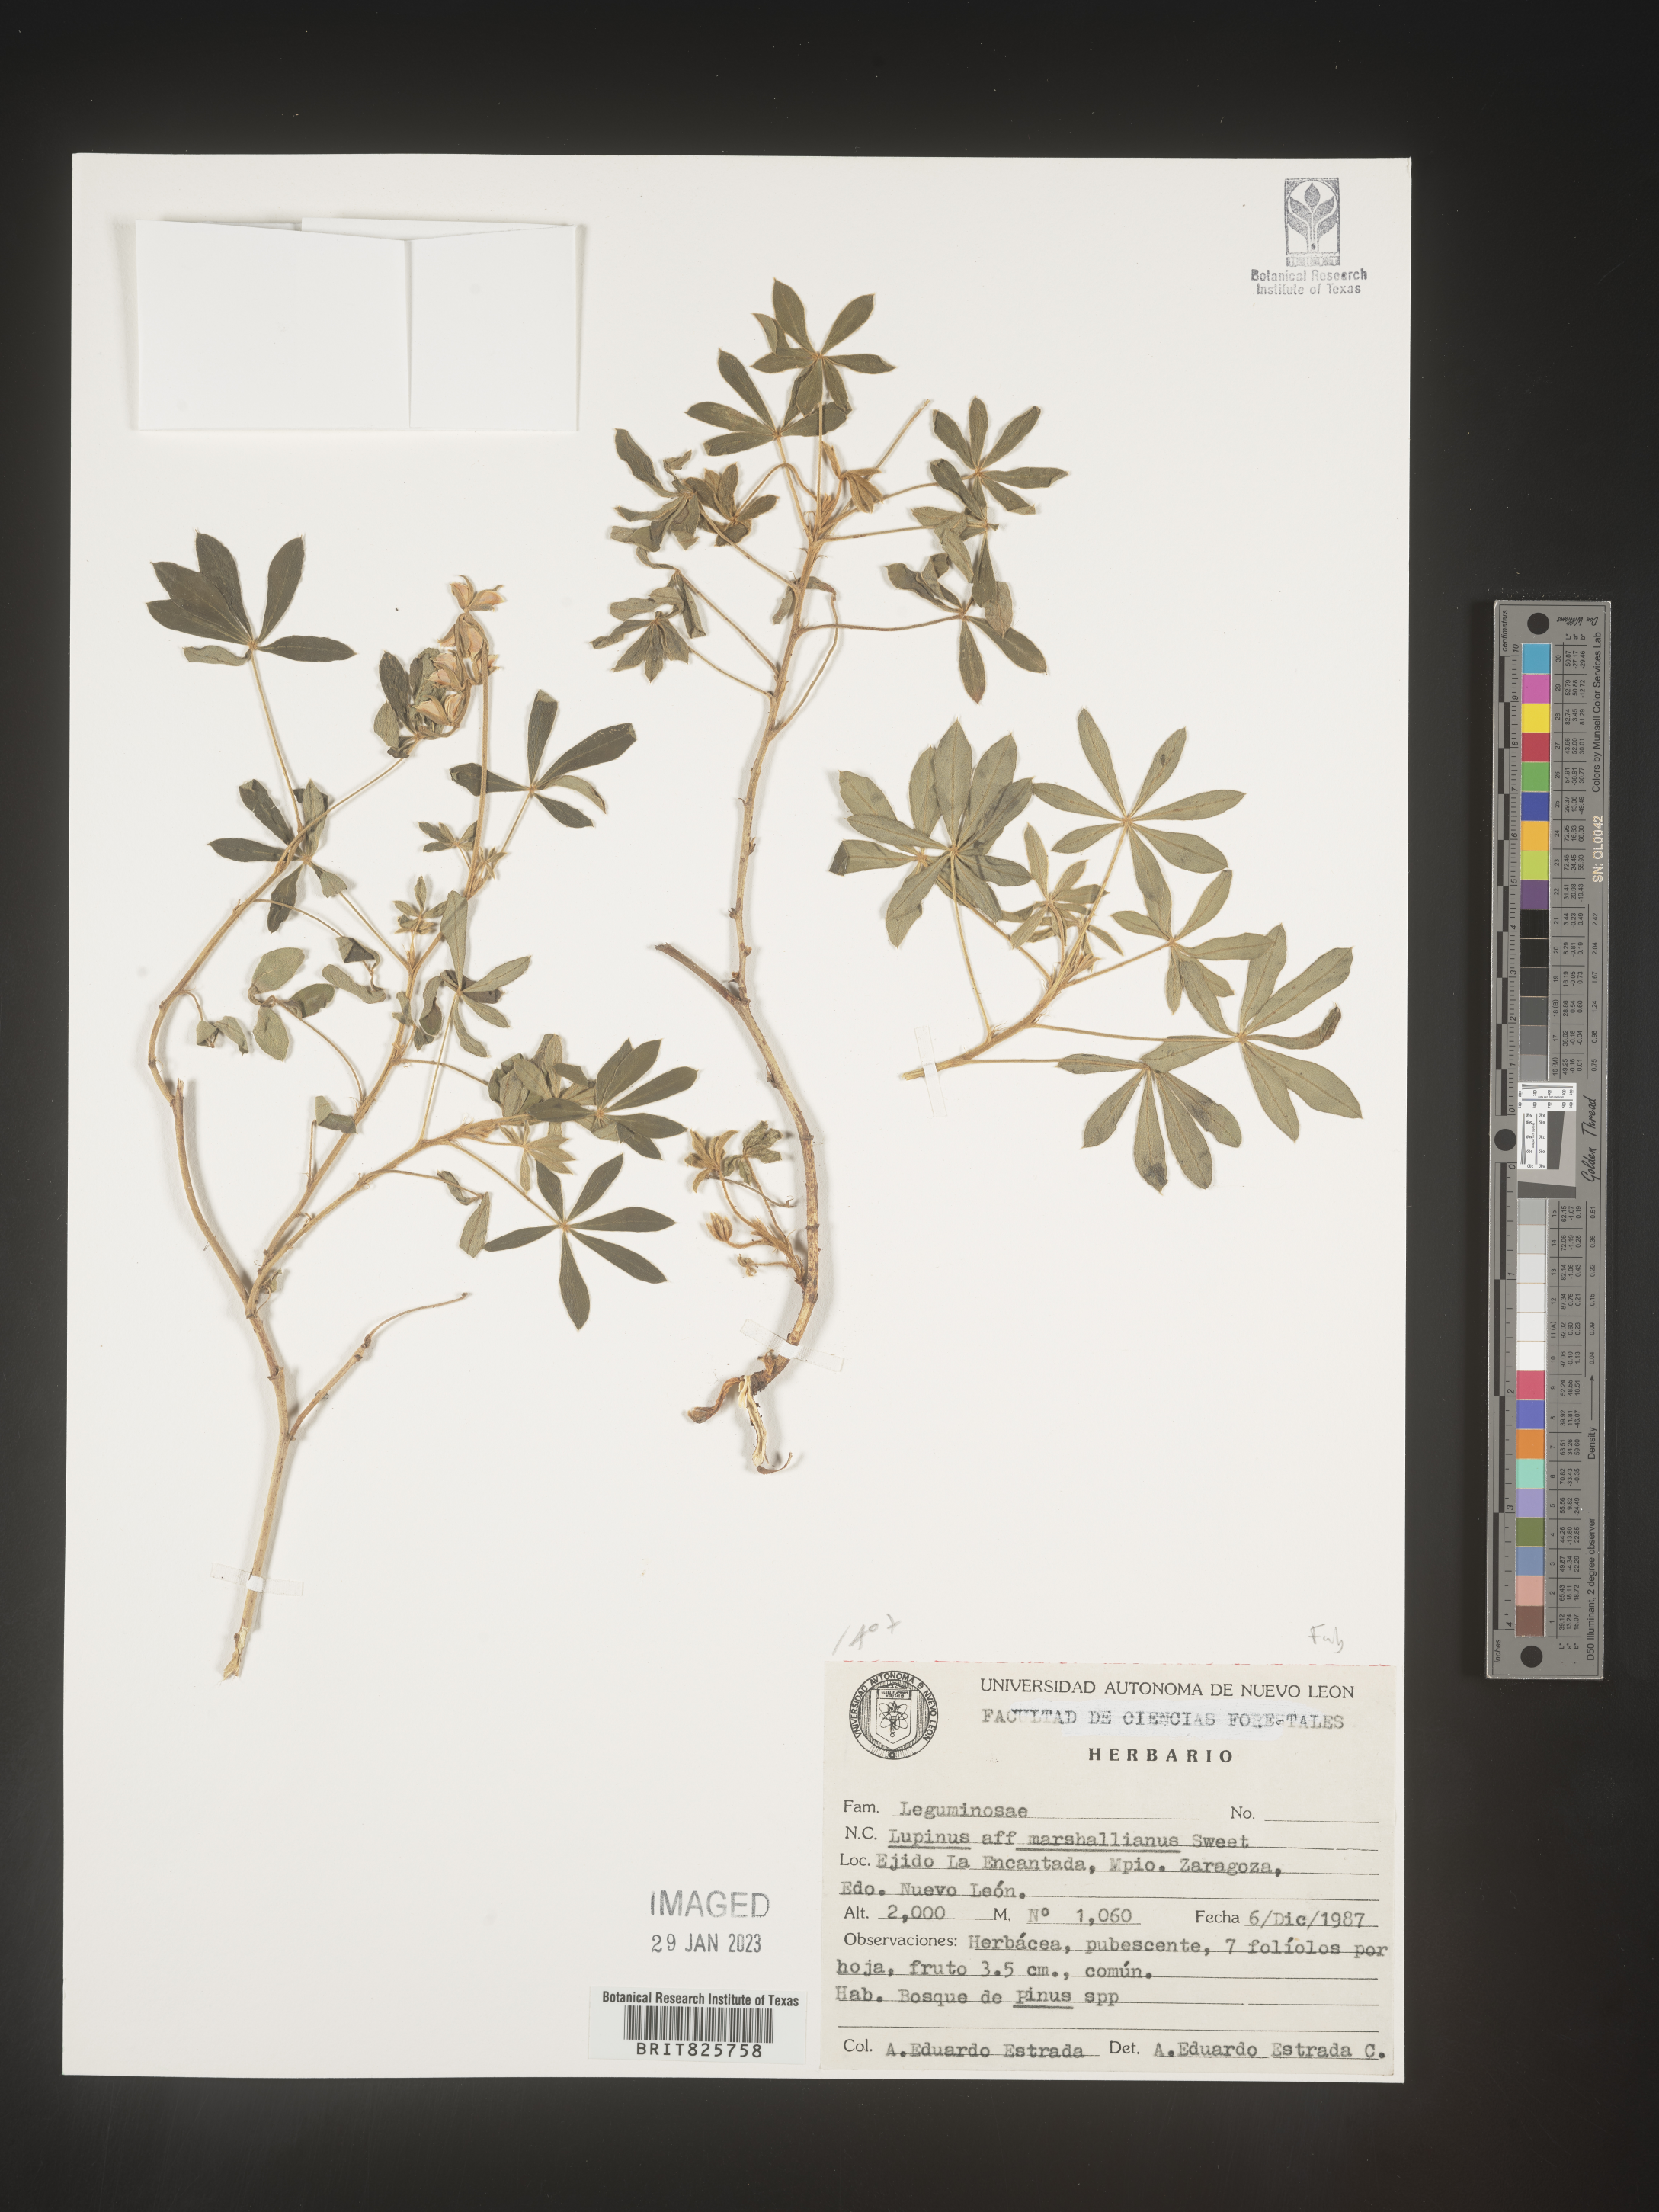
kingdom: Plantae
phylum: Tracheophyta
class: Magnoliopsida
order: Fabales
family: Fabaceae
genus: Lupinus
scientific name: Lupinus
